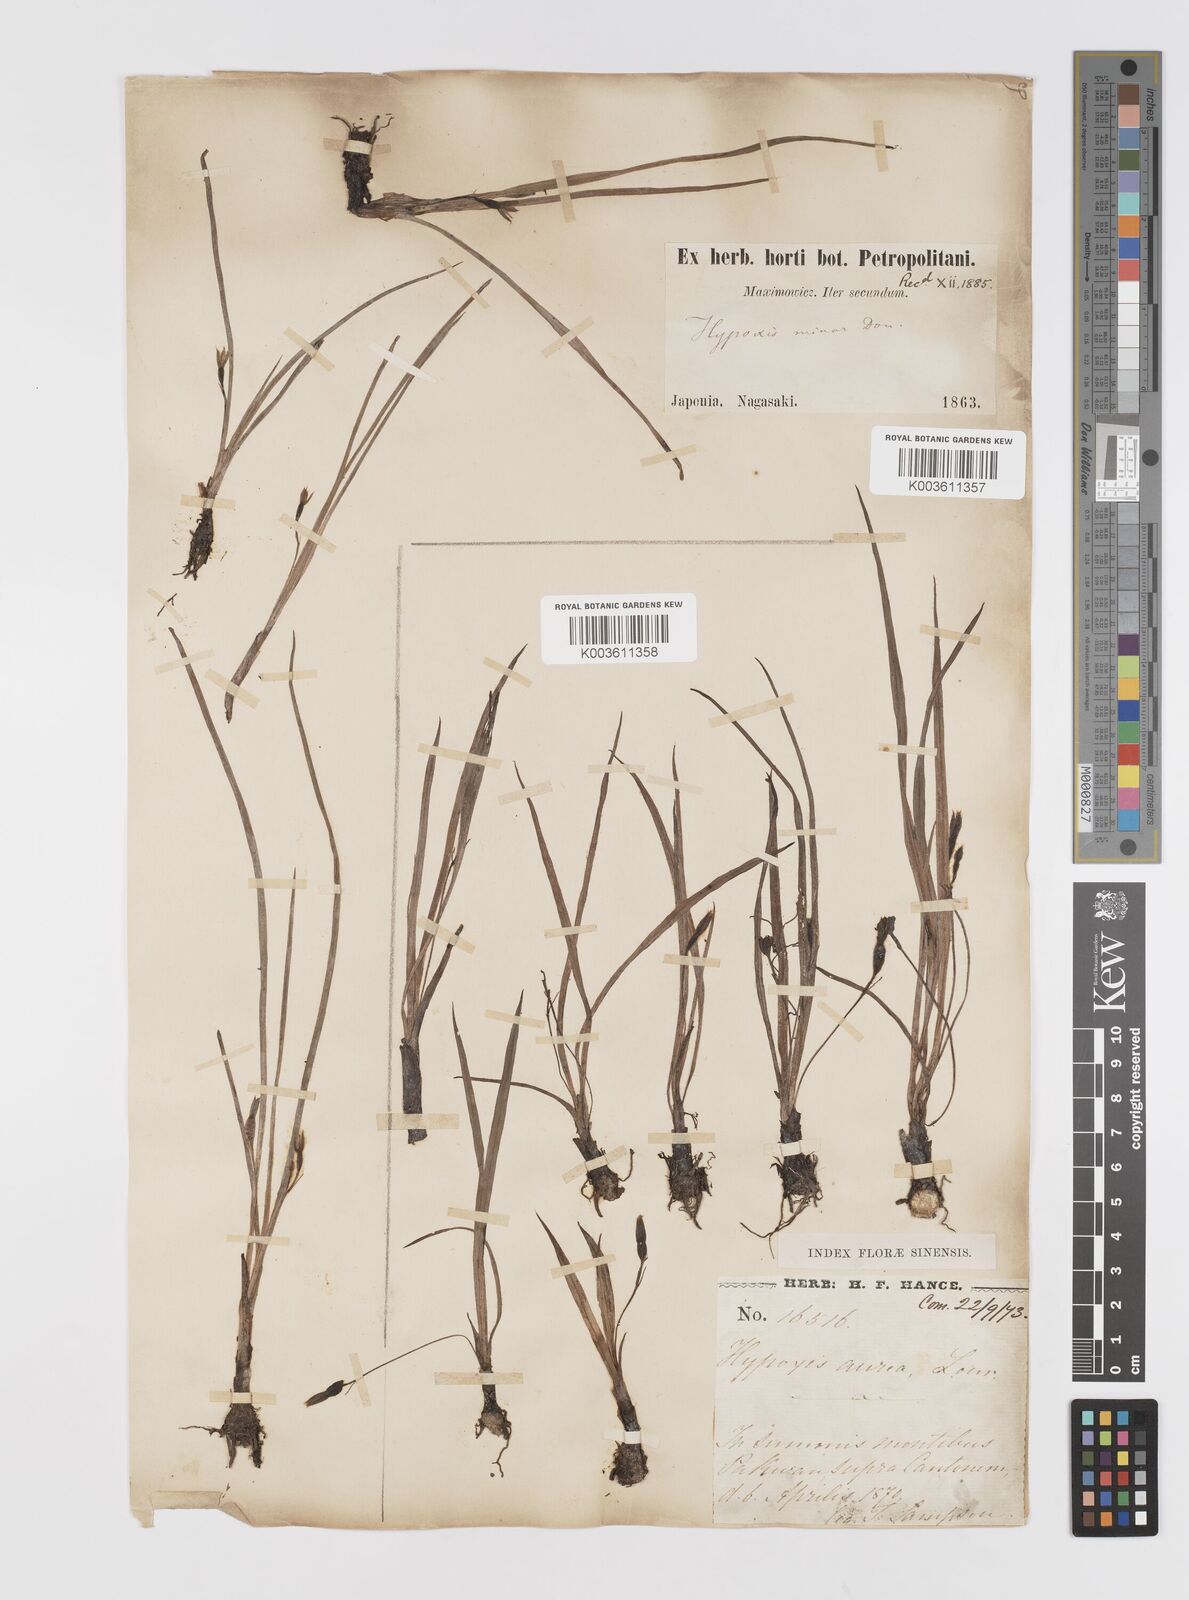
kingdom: Plantae
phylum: Tracheophyta
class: Liliopsida
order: Asparagales
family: Hypoxidaceae
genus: Hypoxis
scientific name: Hypoxis aurea
